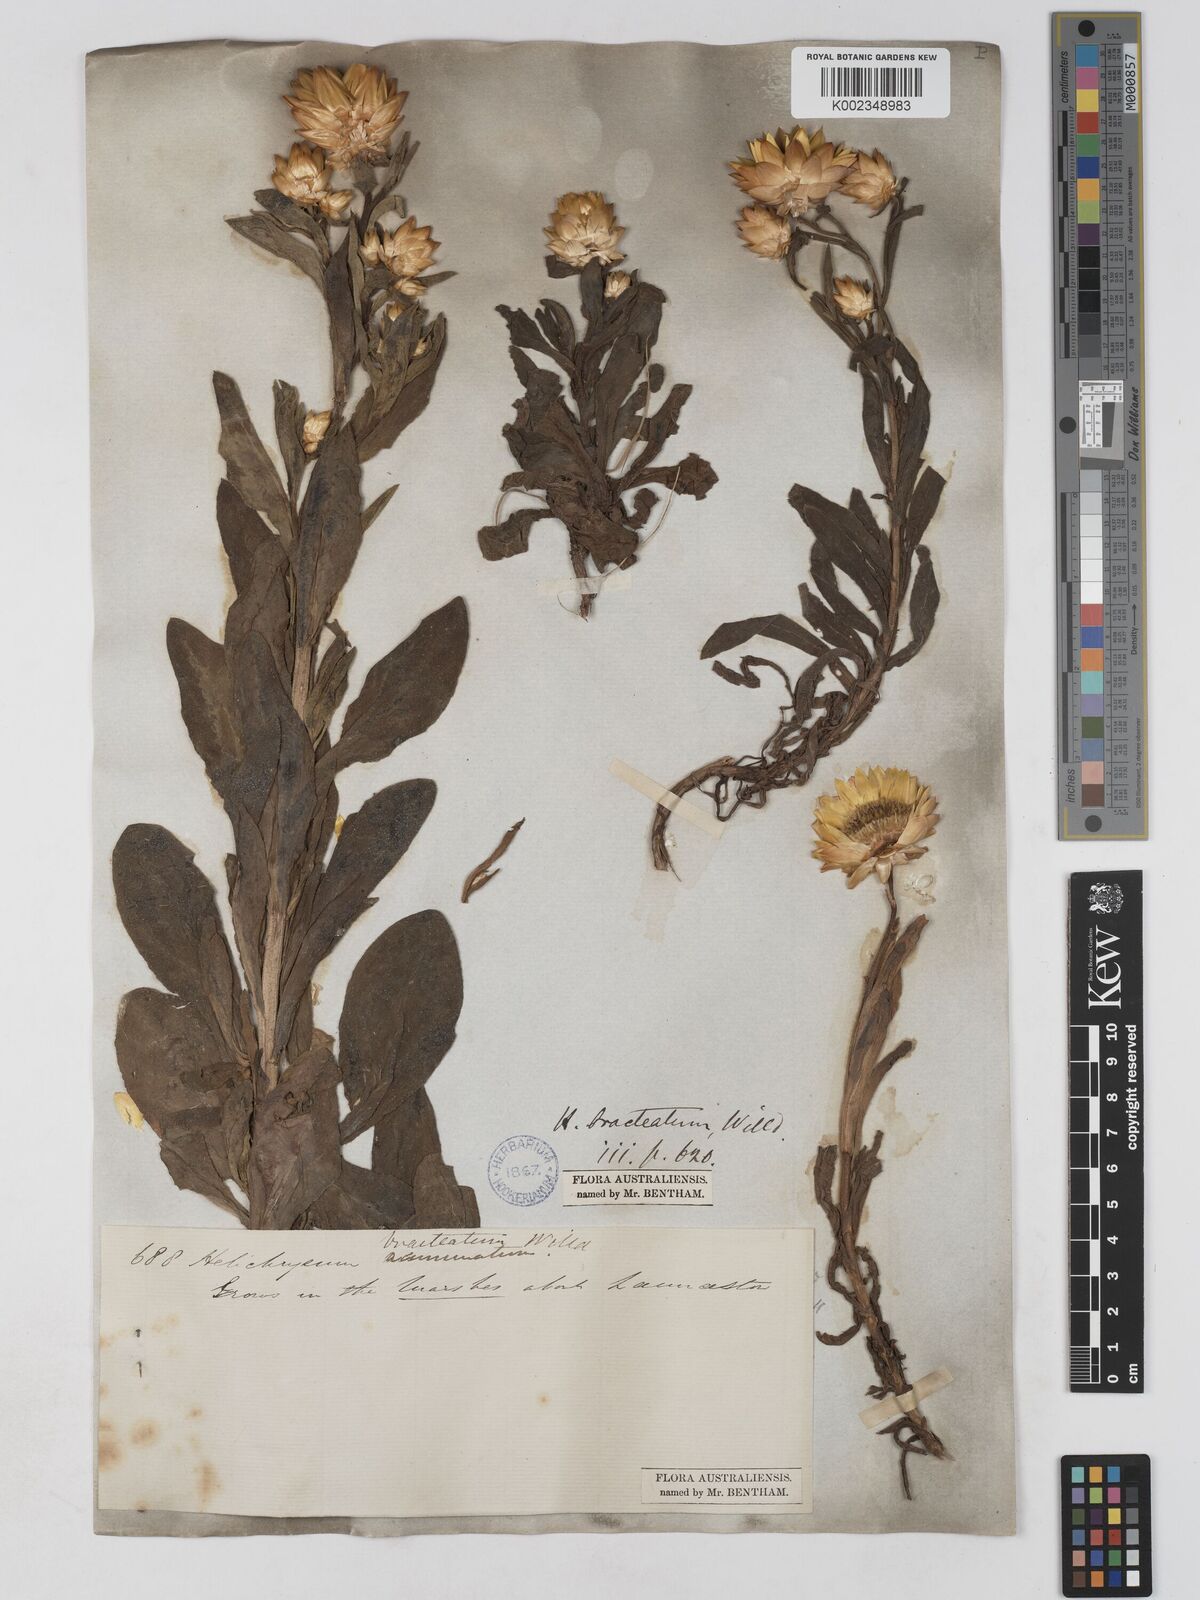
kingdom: Plantae
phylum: Tracheophyta
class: Magnoliopsida
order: Asterales
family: Asteraceae
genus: Xerochrysum
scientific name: Xerochrysum bracteatum
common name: Bracted strawflower
